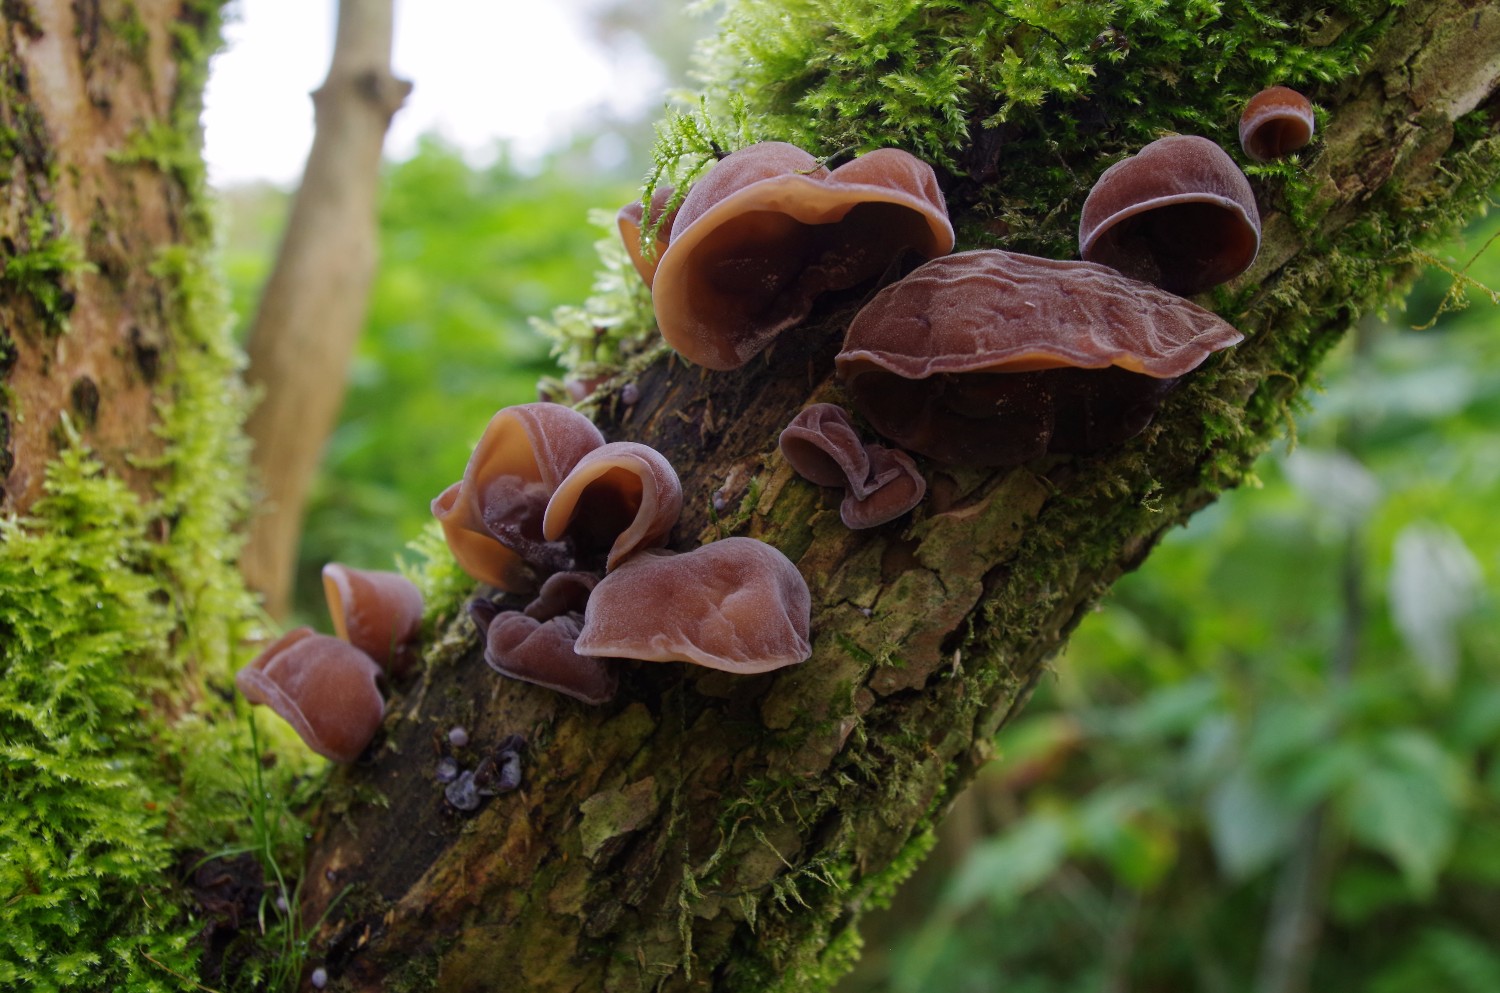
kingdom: Fungi
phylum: Basidiomycota
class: Agaricomycetes
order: Auriculariales
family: Auriculariaceae
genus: Auricularia
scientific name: Auricularia auricula-judae
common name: almindelig judasøre
